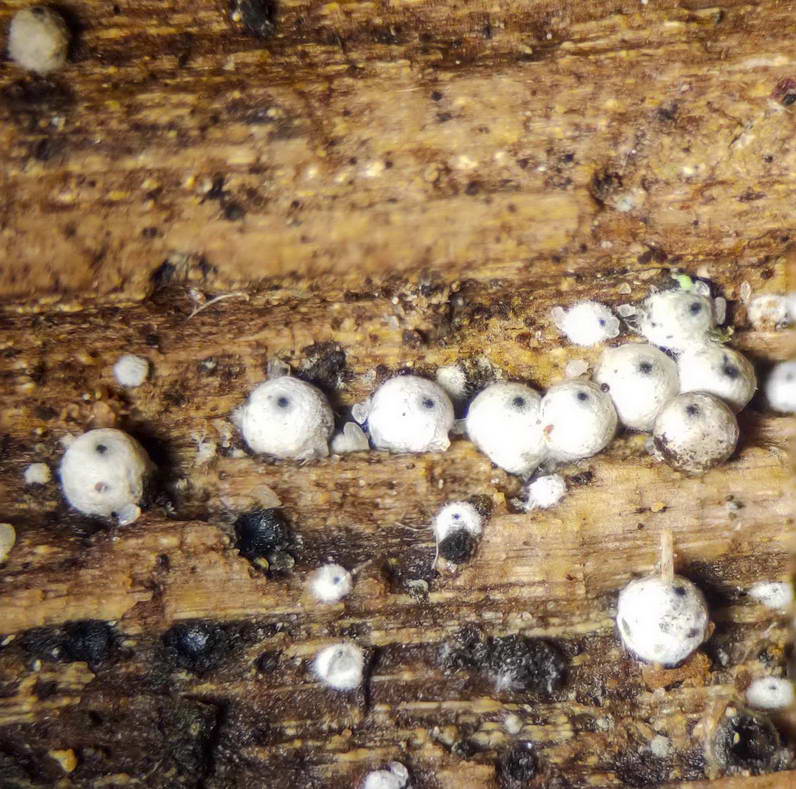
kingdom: Fungi
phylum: Ascomycota
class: Sordariomycetes
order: Sordariales
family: Lasiosphaeriaceae
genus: Lasiosphaeria
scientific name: Lasiosphaeria ovina
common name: fåre-kernesvamp
